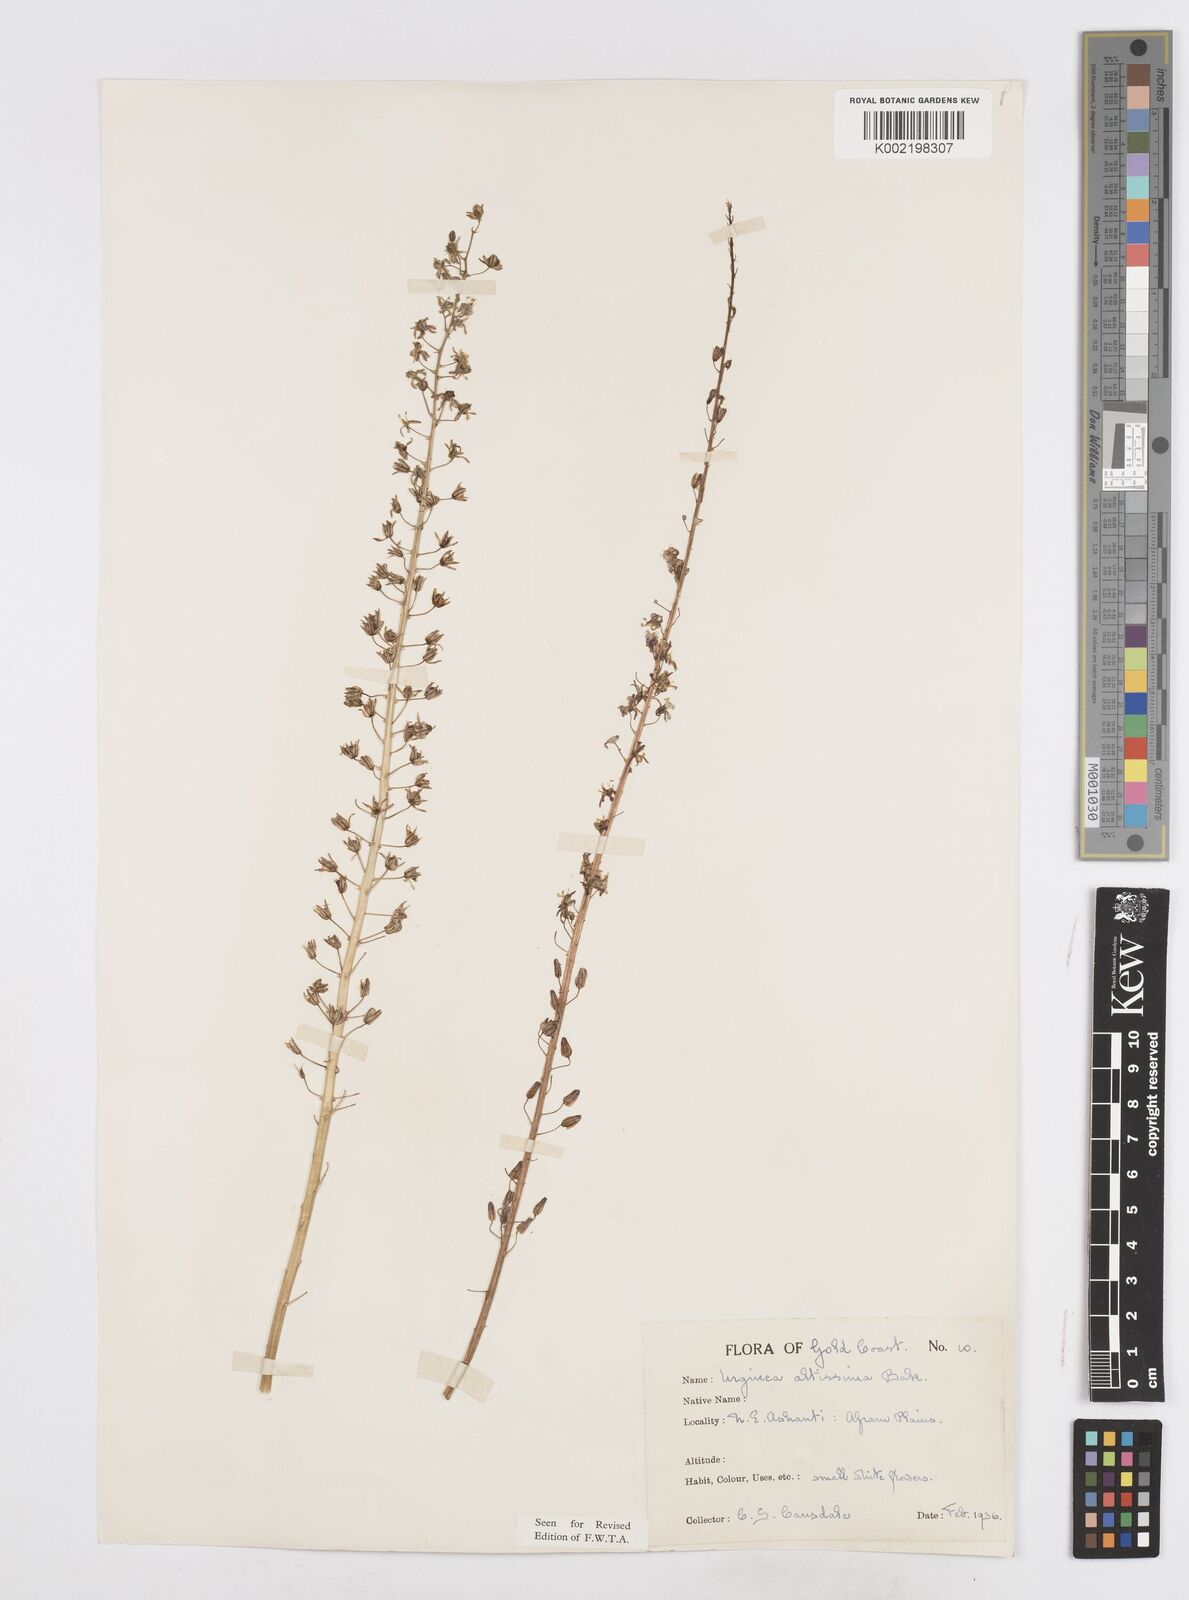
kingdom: Plantae
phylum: Tracheophyta
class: Liliopsida
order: Asparagales
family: Asparagaceae
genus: Drimia
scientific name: Drimia altissima
